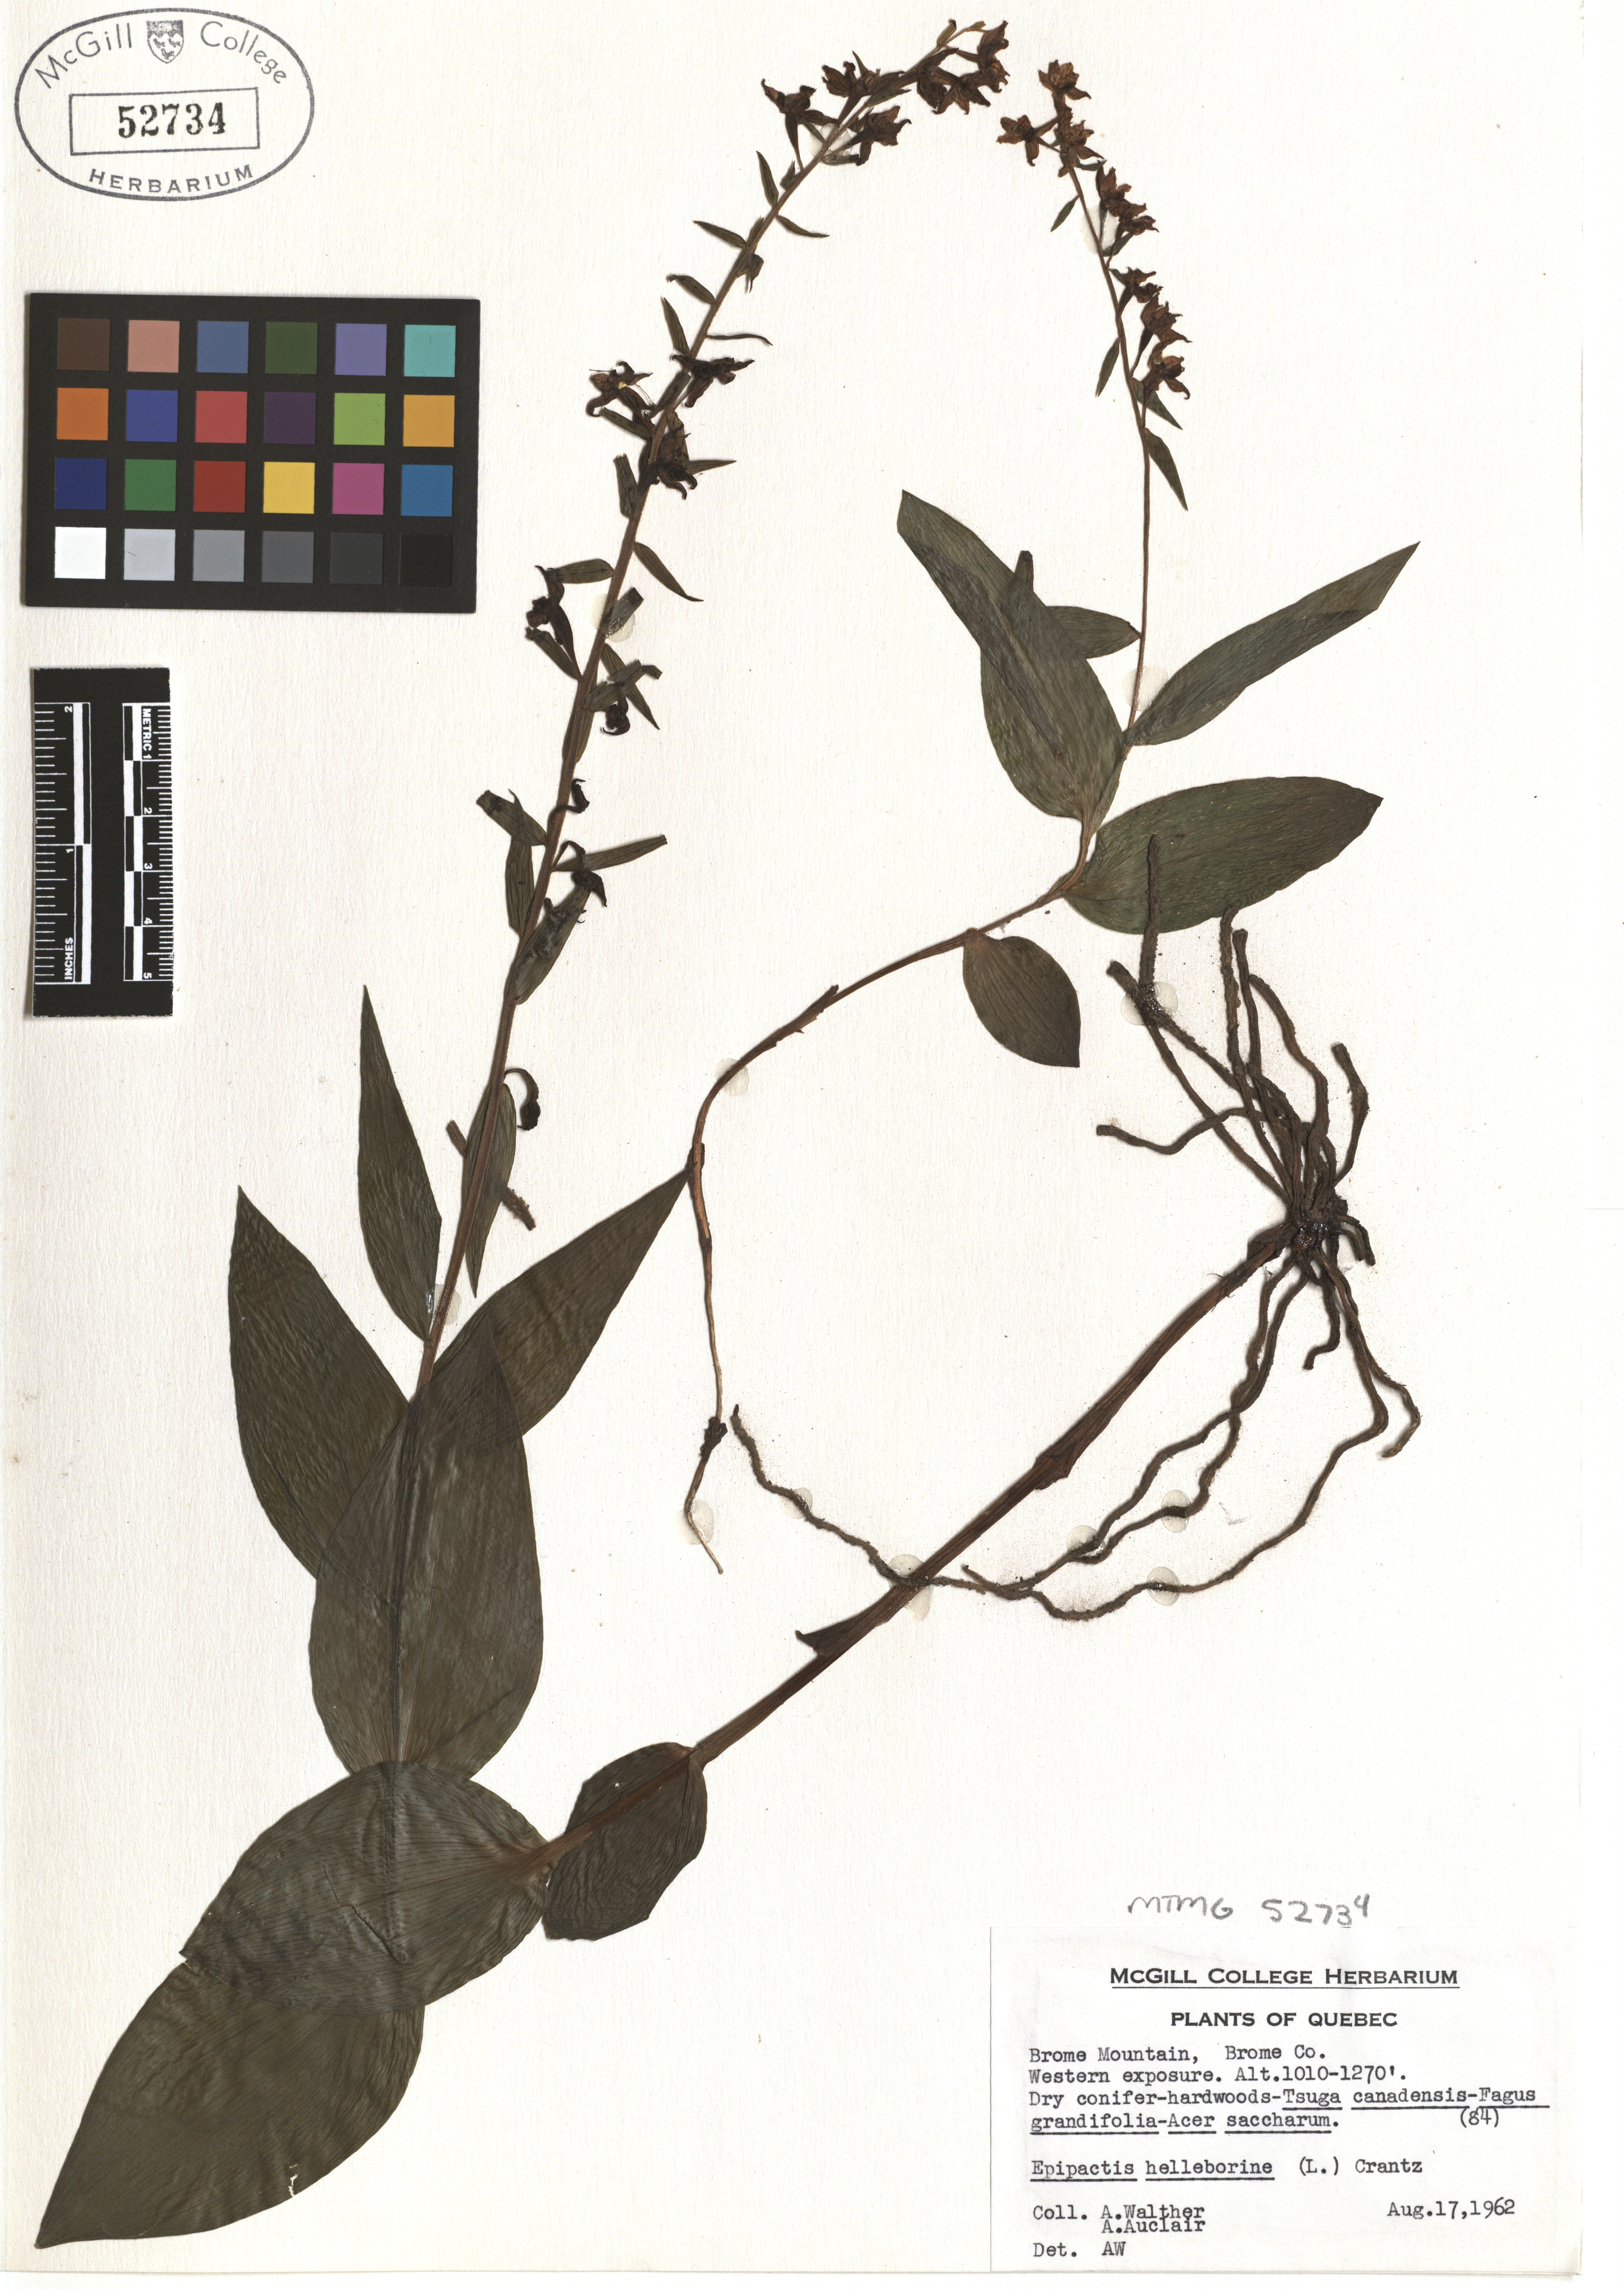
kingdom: Plantae
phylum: Tracheophyta
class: Liliopsida
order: Asparagales
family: Orchidaceae
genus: Epipactis
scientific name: Epipactis helleborine
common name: Broad-leaved helleborine
